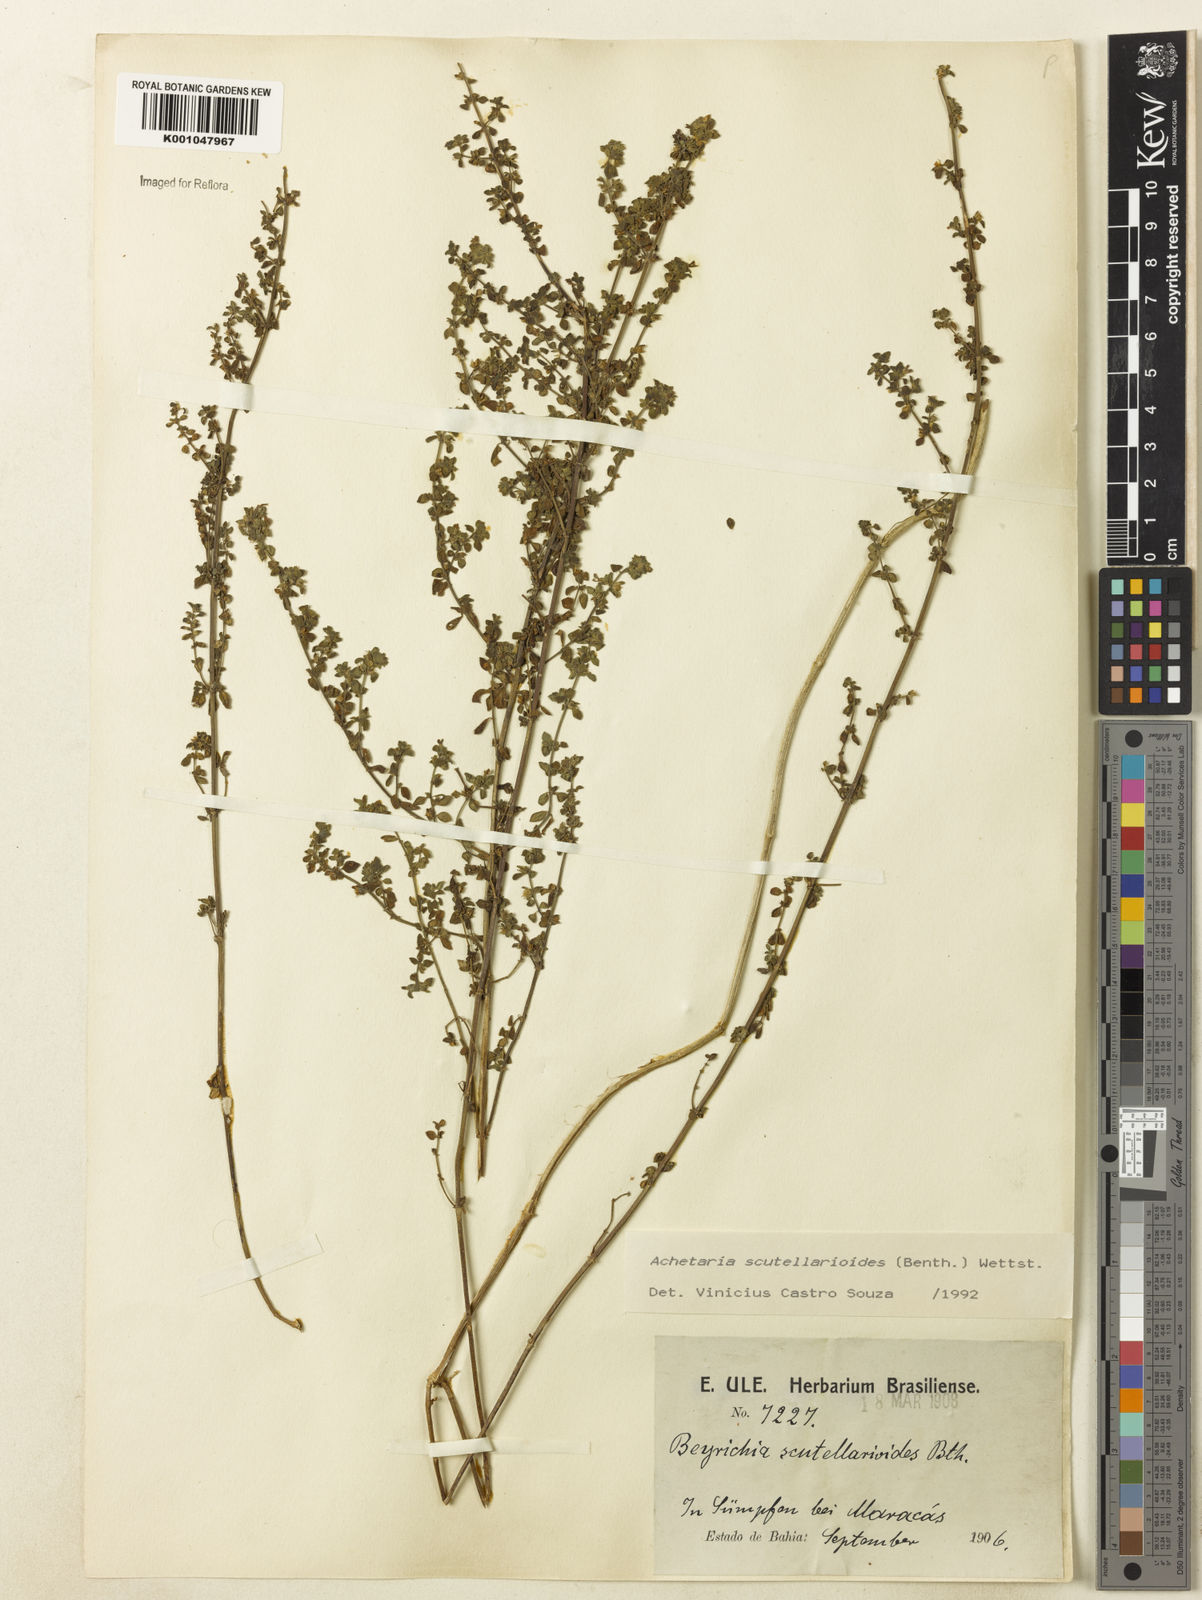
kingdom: Plantae
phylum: Tracheophyta
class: Magnoliopsida
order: Lamiales
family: Plantaginaceae
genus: Matourea
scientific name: Matourea scutellarioides
